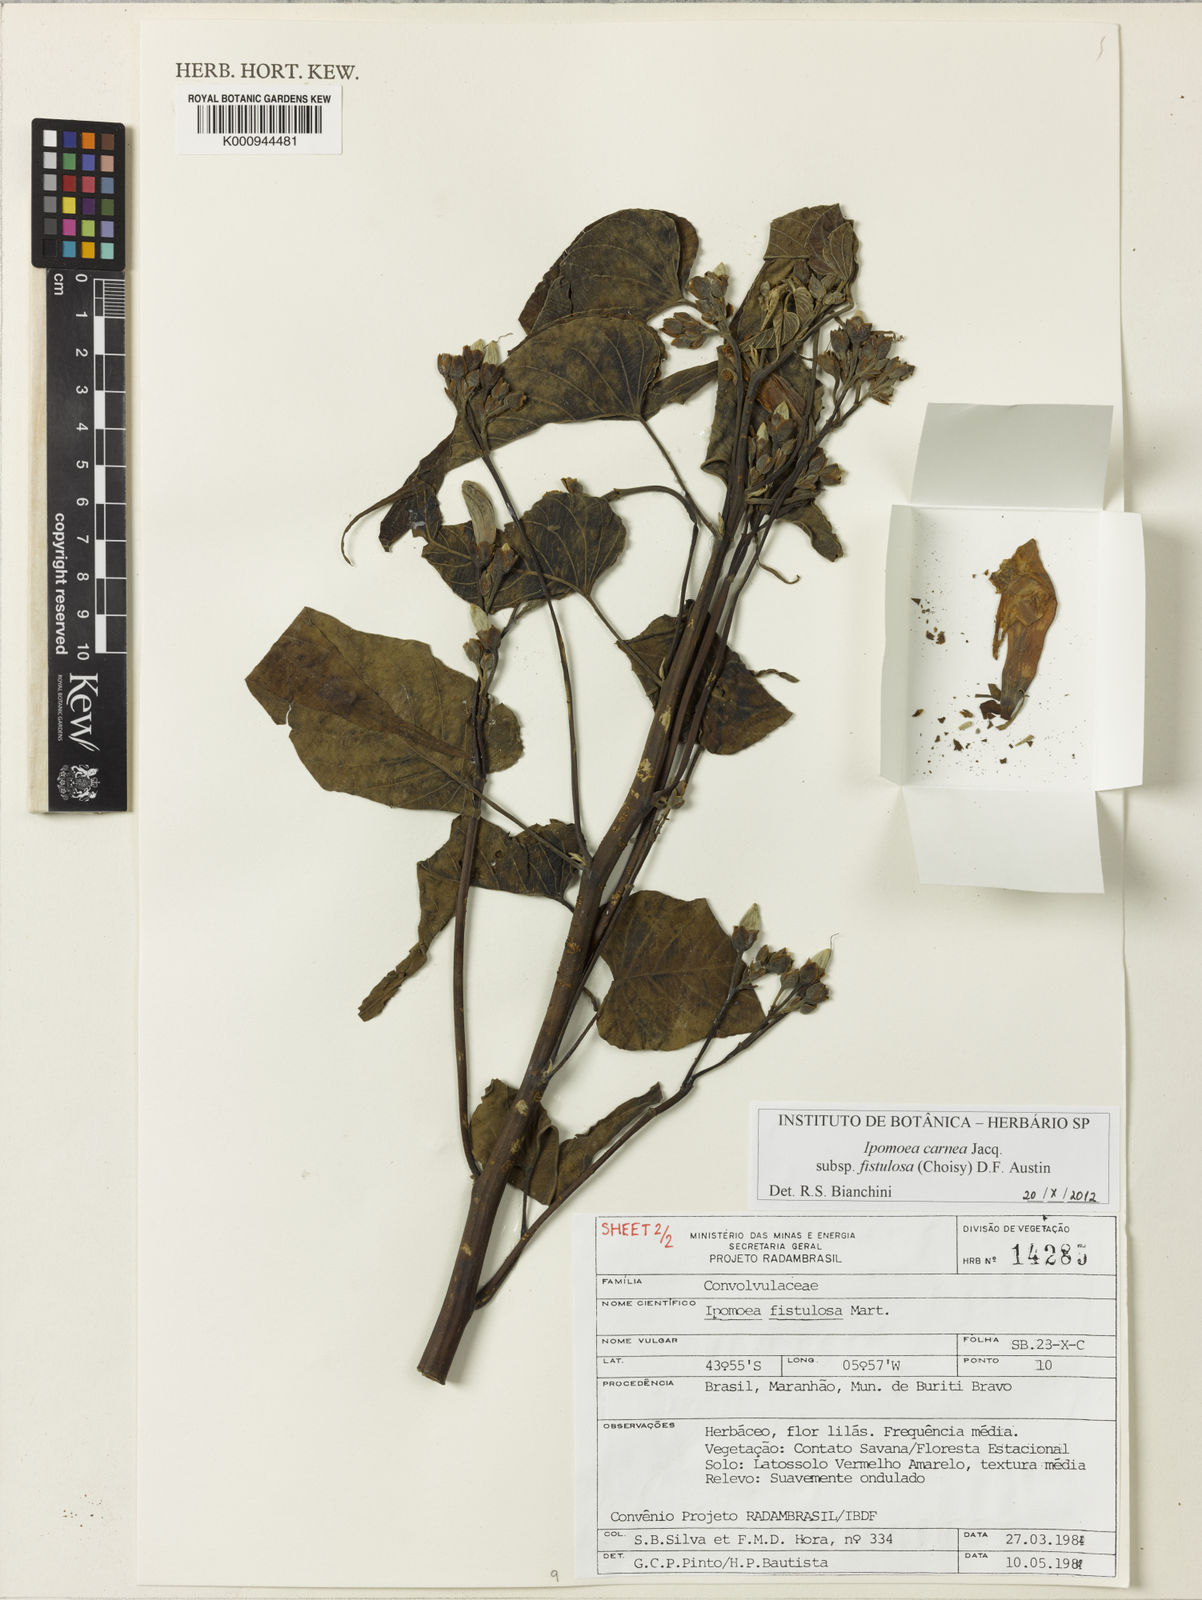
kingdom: Plantae
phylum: Tracheophyta
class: Magnoliopsida
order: Solanales
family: Convolvulaceae
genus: Ipomoea
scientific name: Ipomoea
